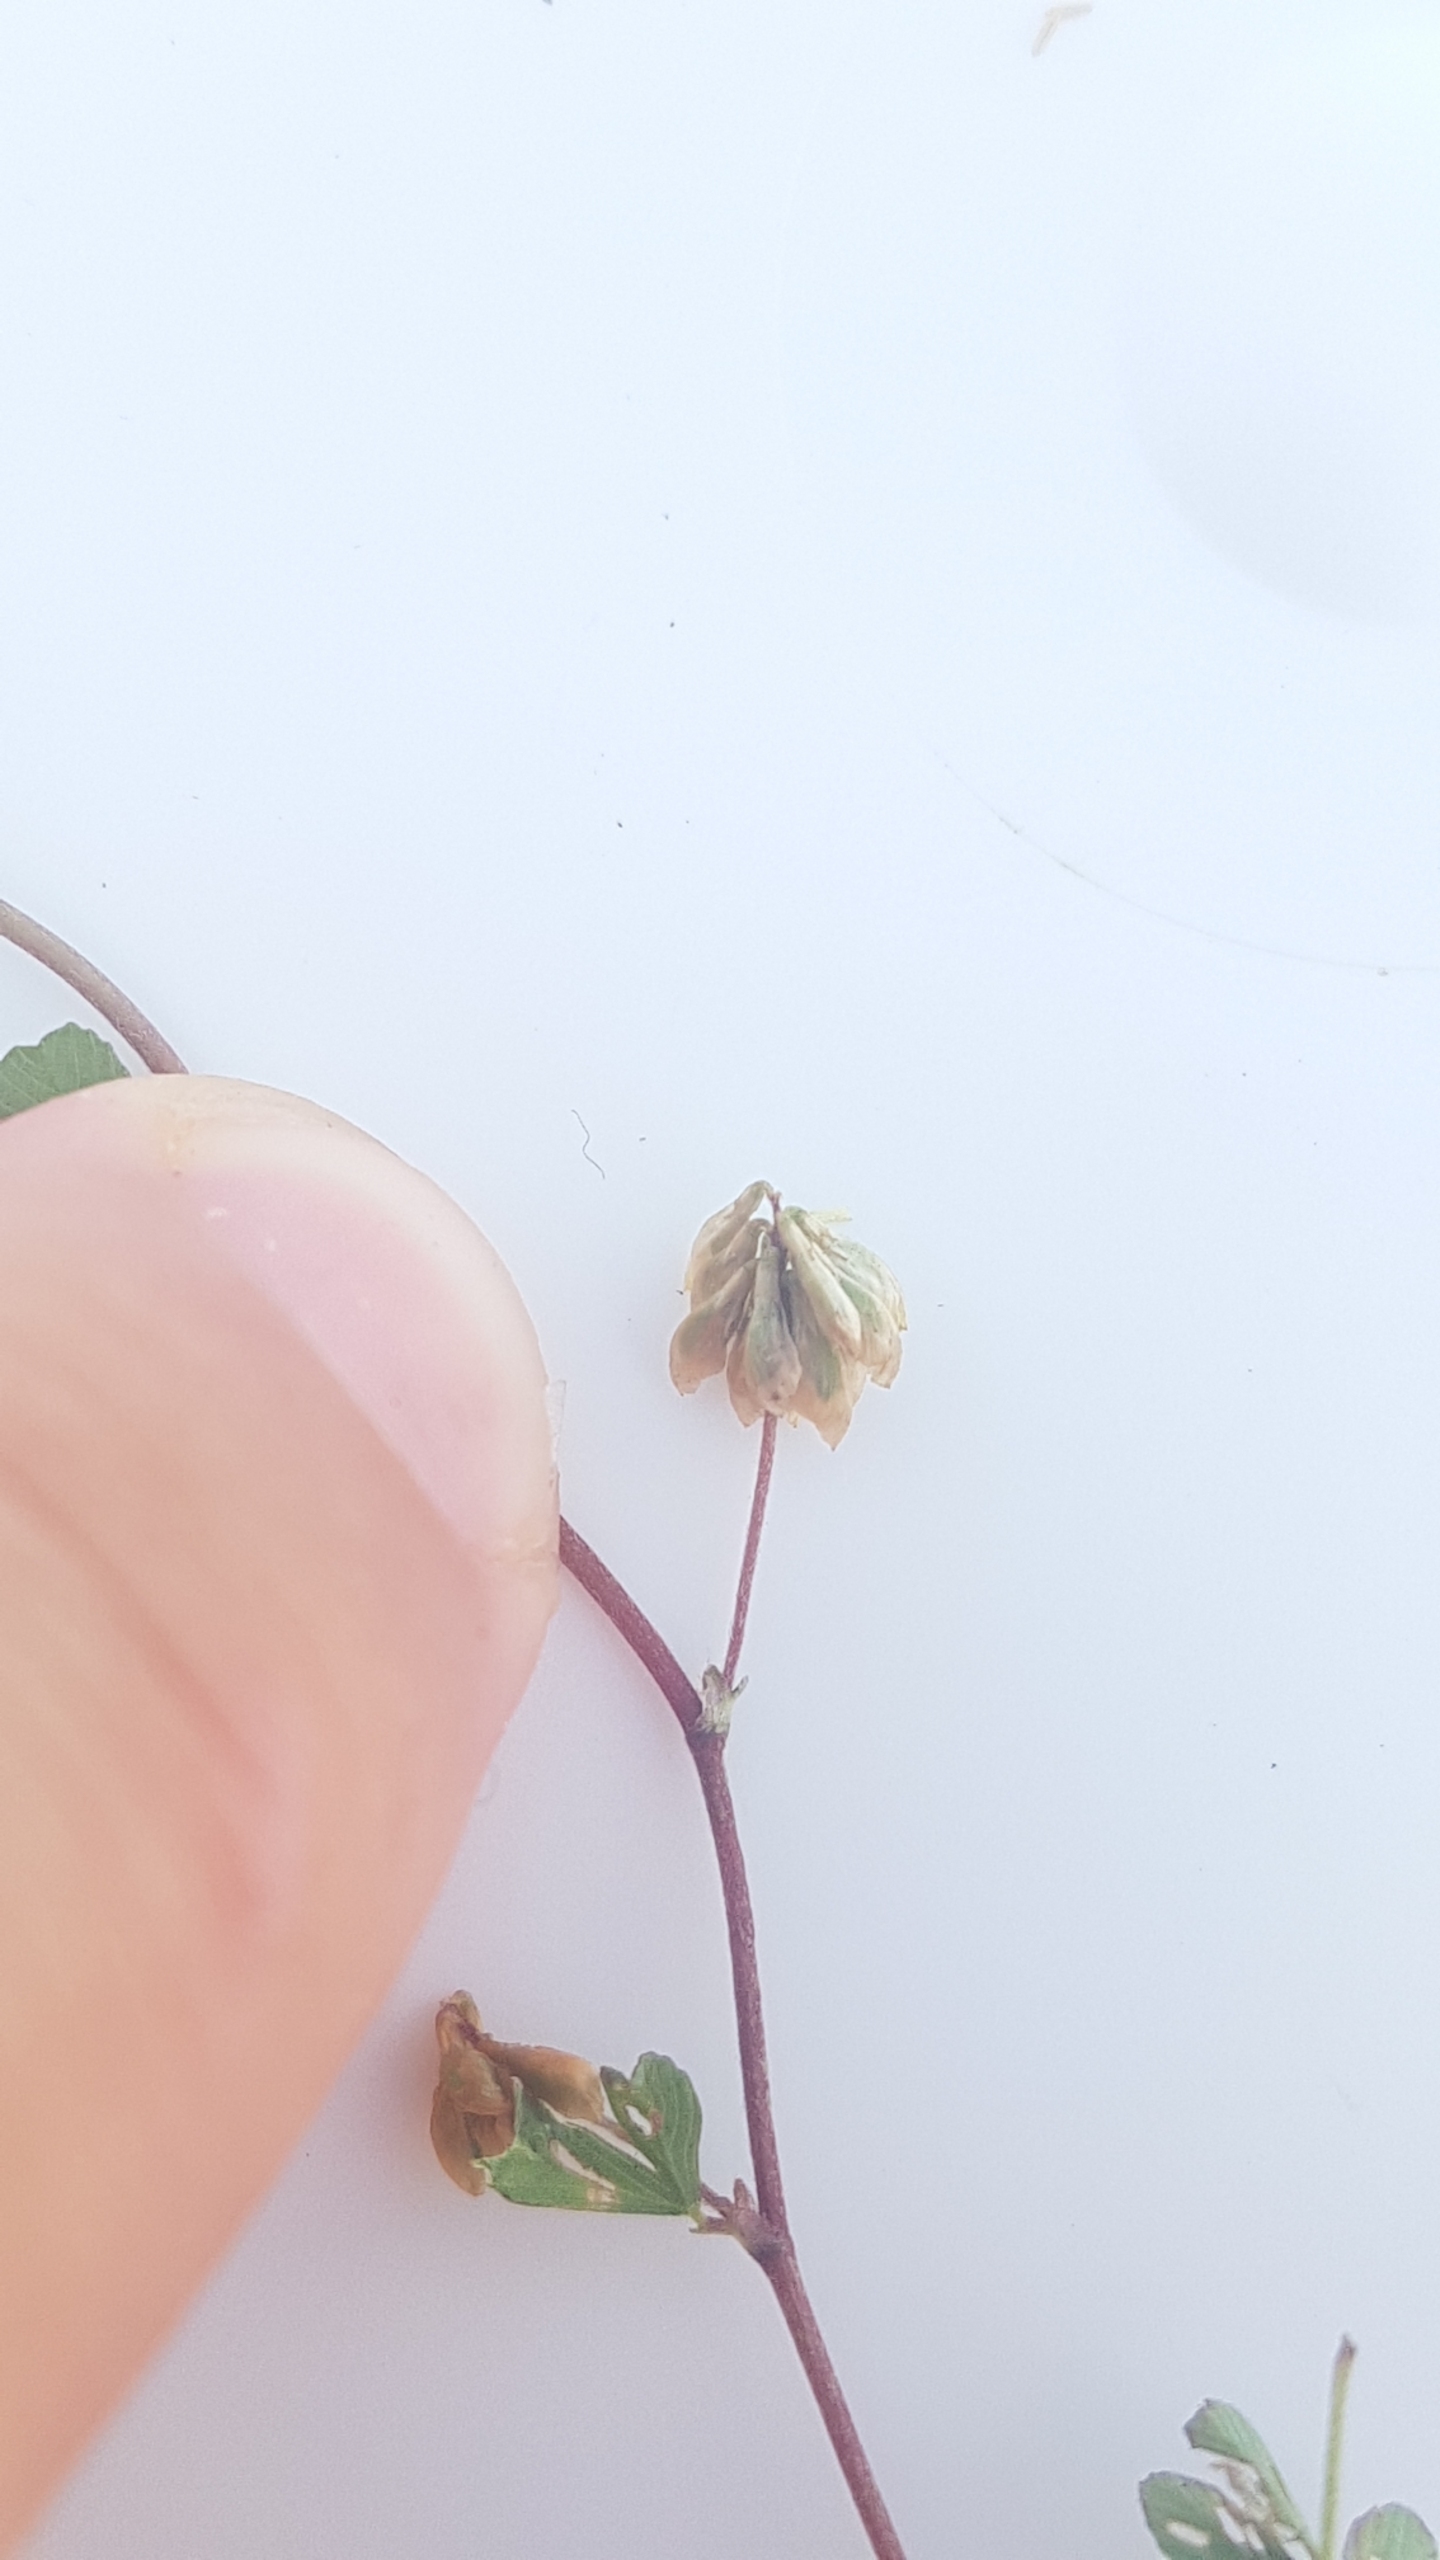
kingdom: Plantae
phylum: Tracheophyta
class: Magnoliopsida
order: Fabales
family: Fabaceae
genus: Trifolium
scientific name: Trifolium dubium
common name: Fin kløver
